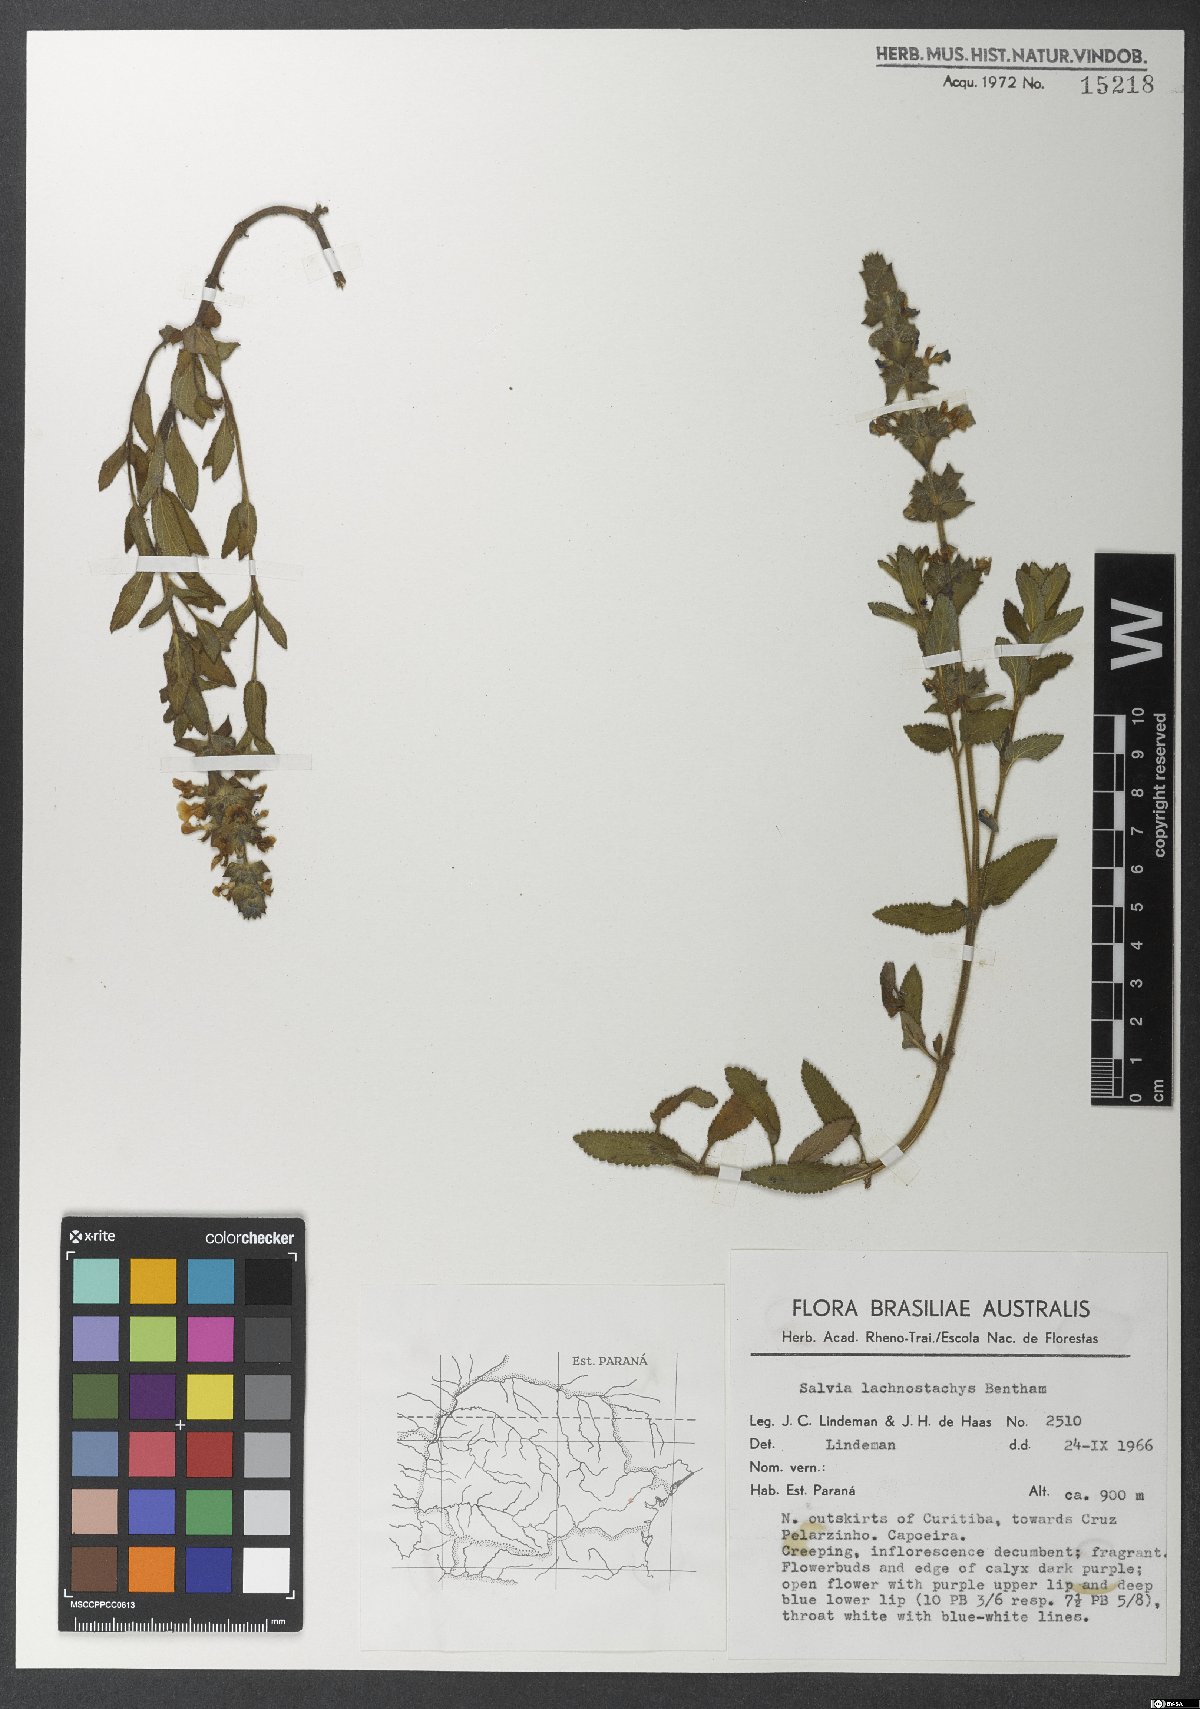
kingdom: Plantae
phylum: Tracheophyta
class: Magnoliopsida
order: Lamiales
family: Lamiaceae
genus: Salvia
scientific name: Salvia lachnostachys
